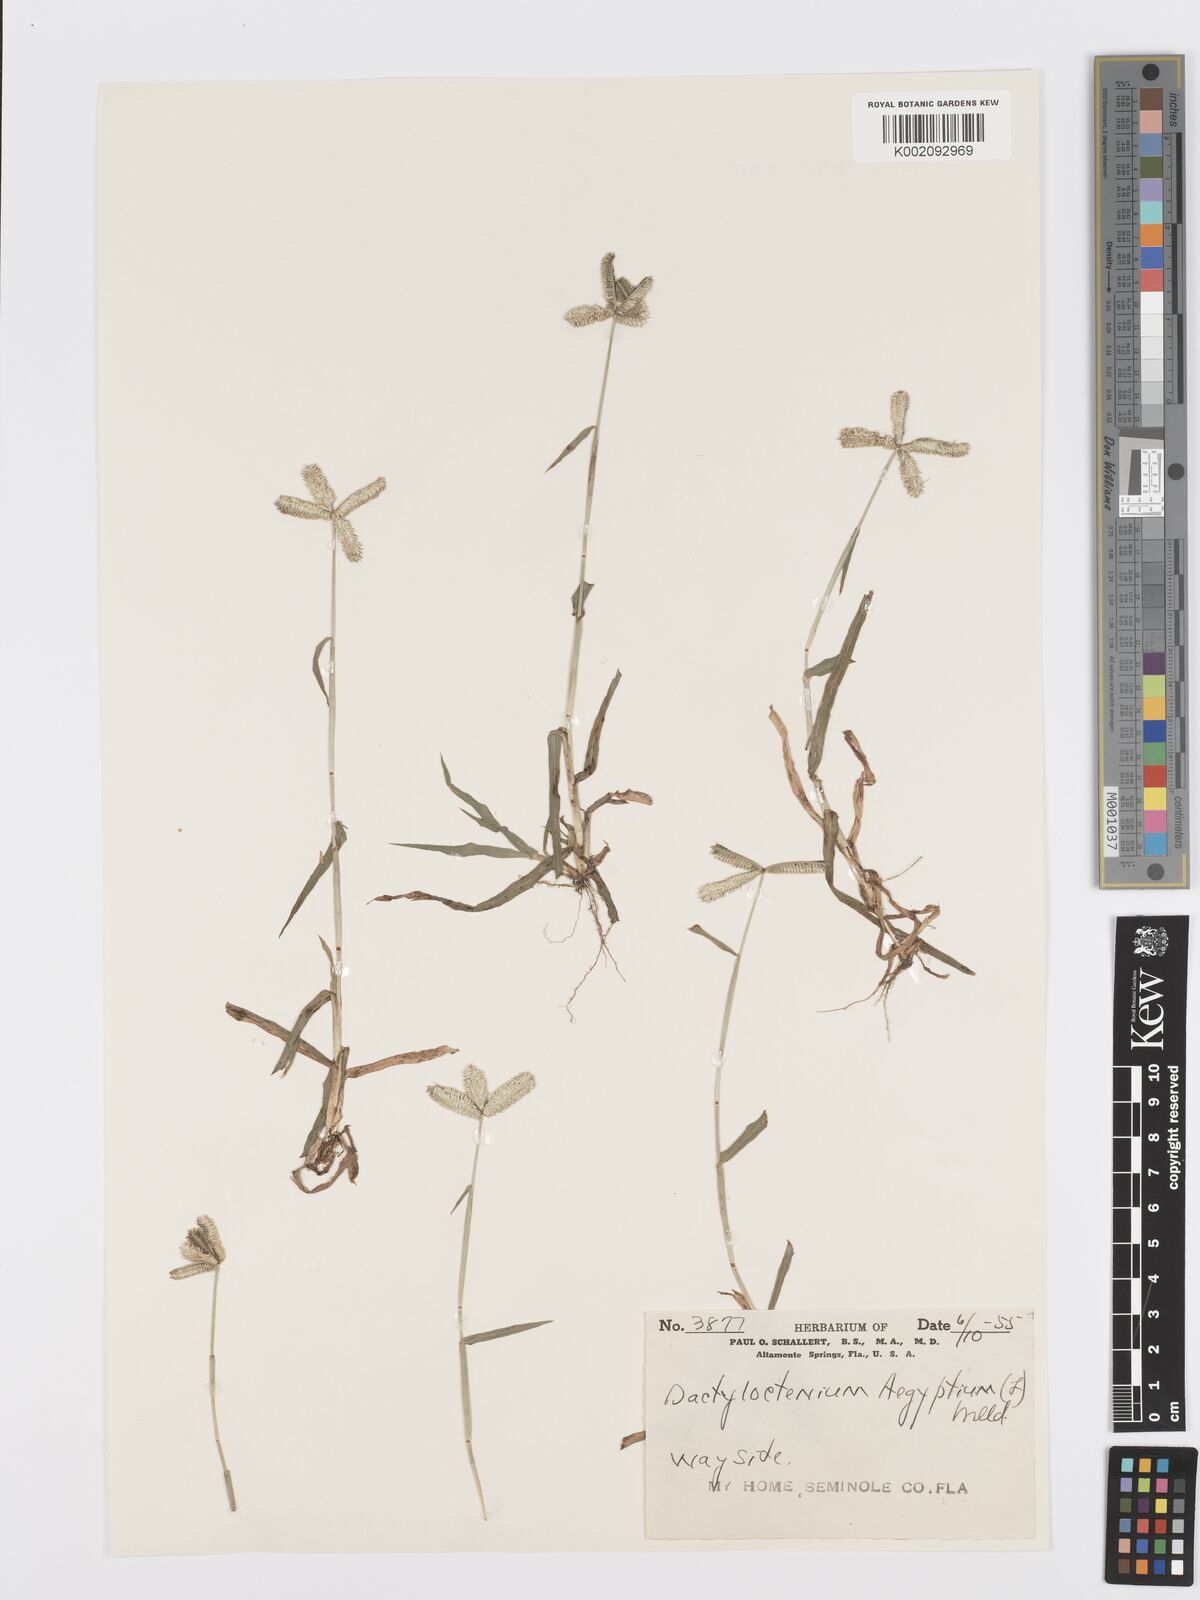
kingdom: Plantae
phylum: Tracheophyta
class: Liliopsida
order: Poales
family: Poaceae
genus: Dactyloctenium
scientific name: Dactyloctenium aegyptium
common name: Egyptian grass
